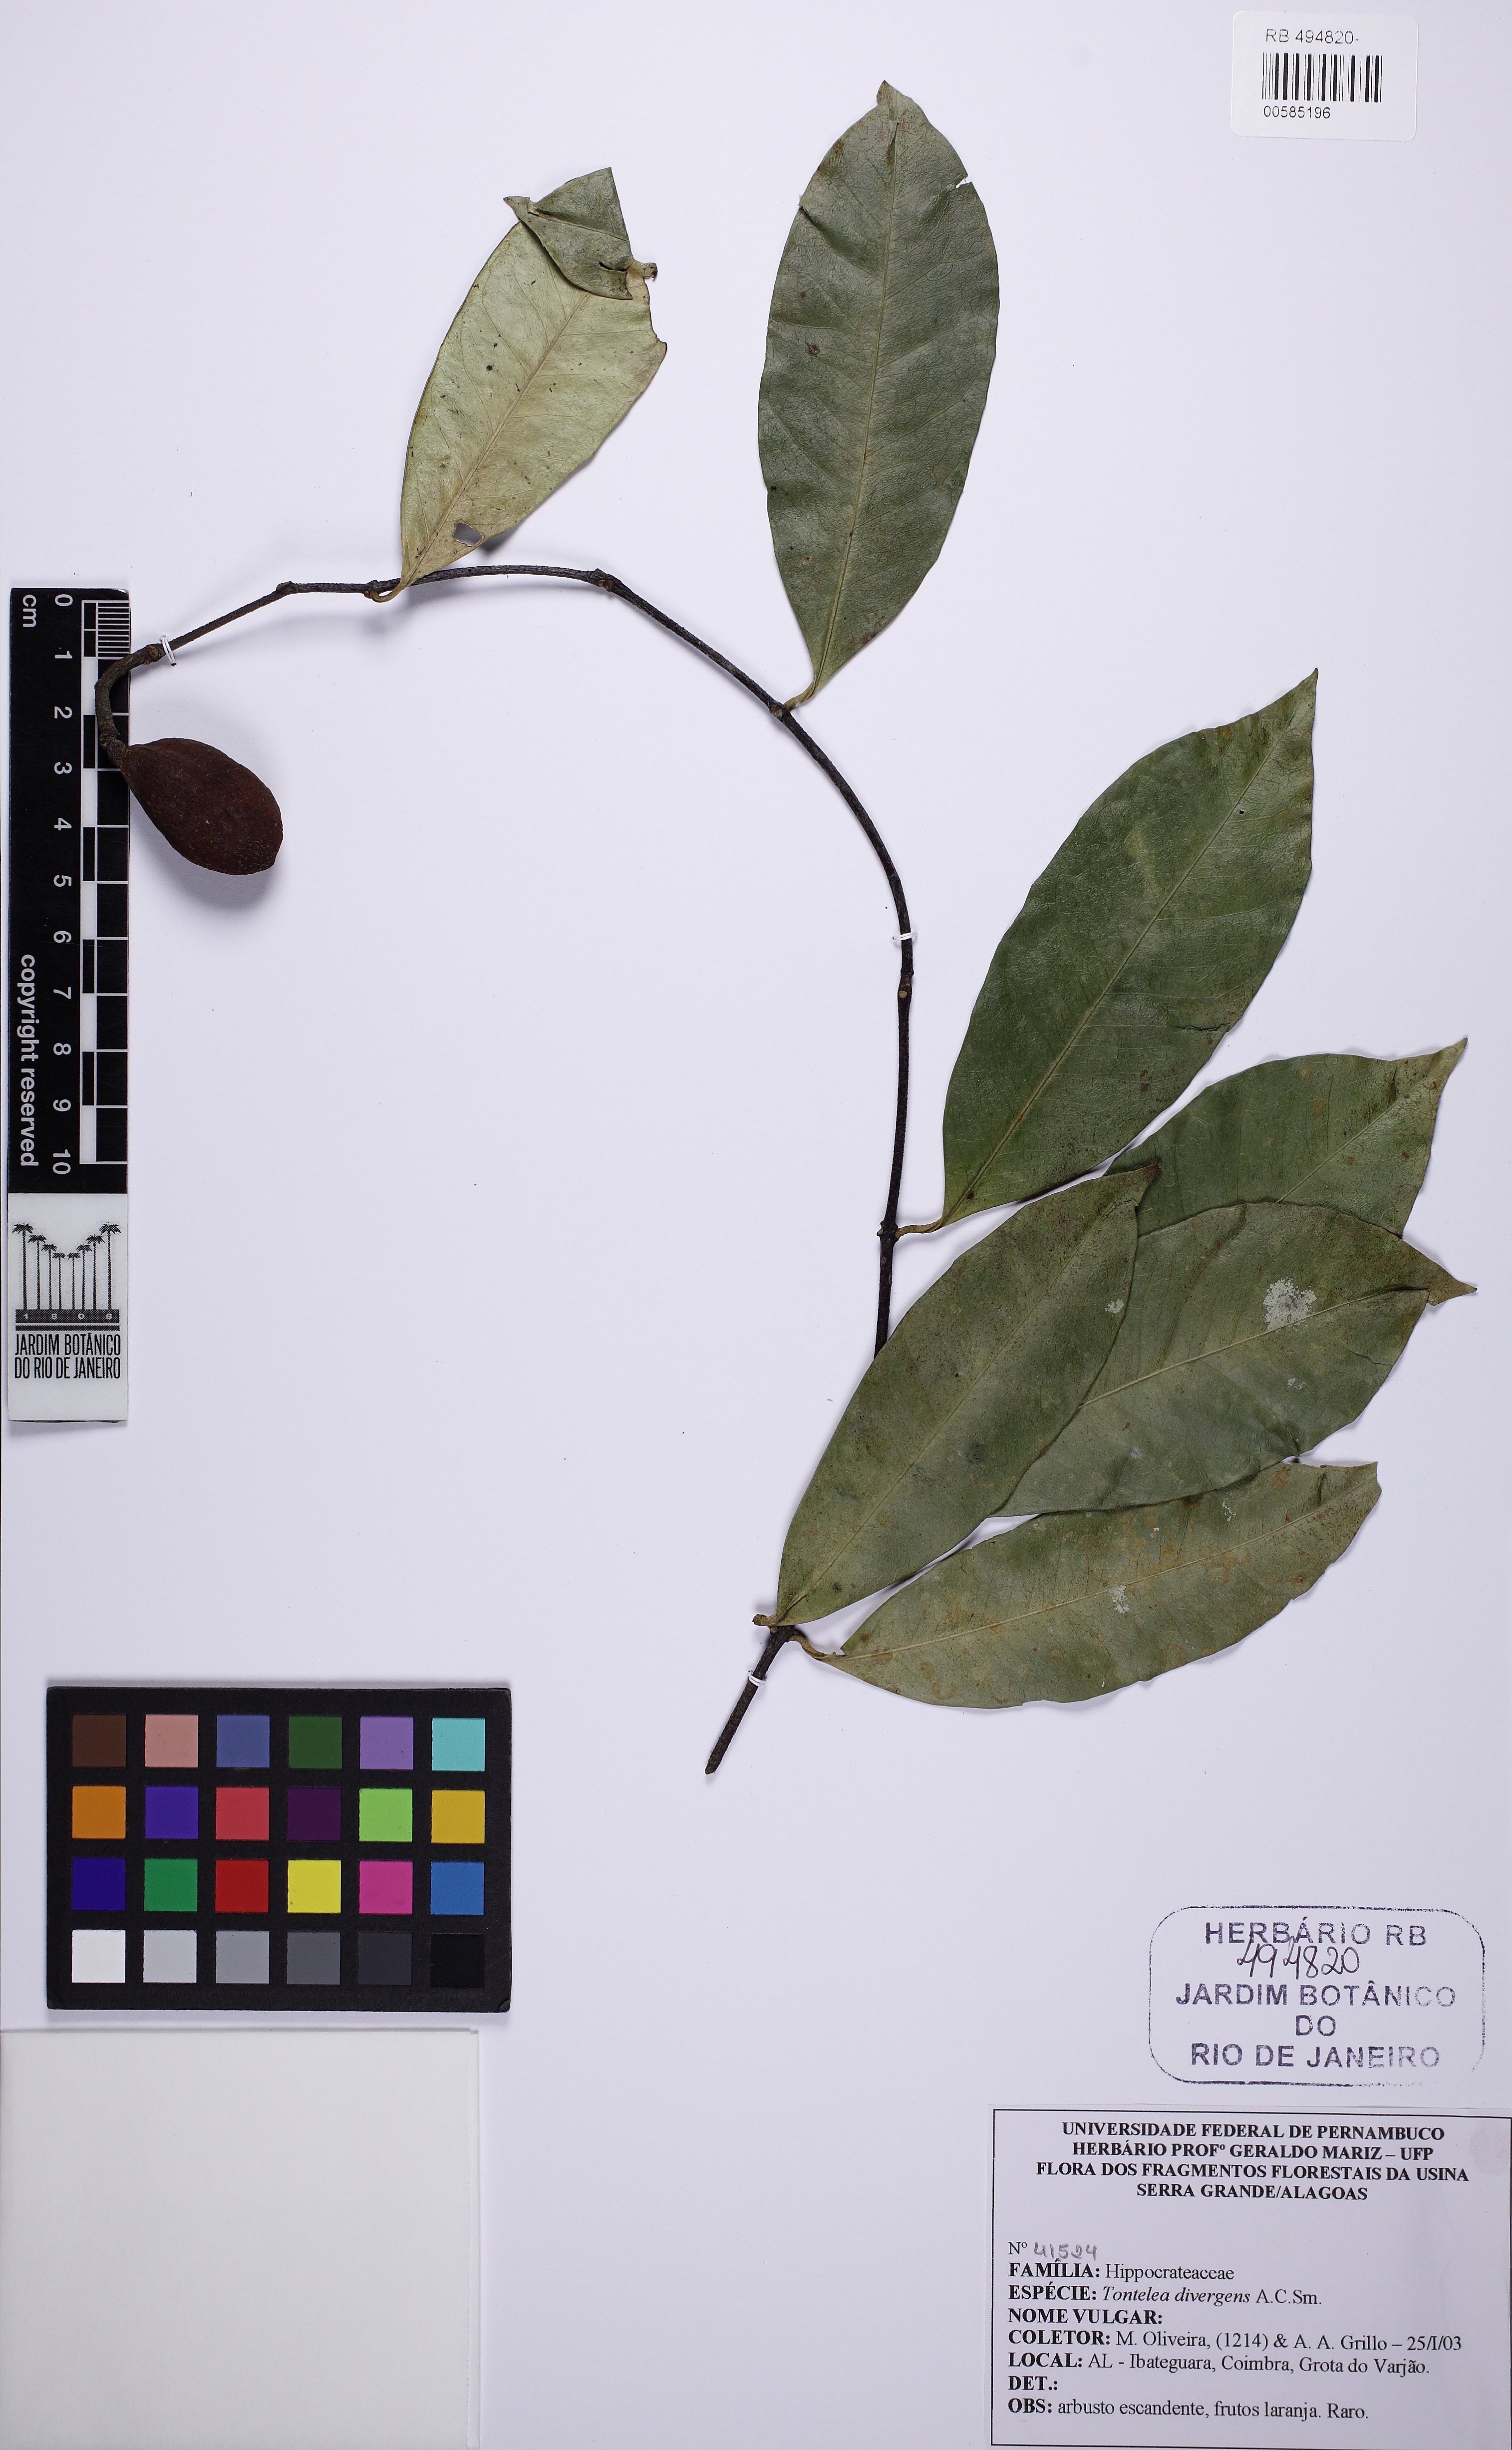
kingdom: Plantae
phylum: Tracheophyta
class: Magnoliopsida
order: Celastrales
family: Celastraceae
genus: Tontelea
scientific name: Tontelea laxiflora
